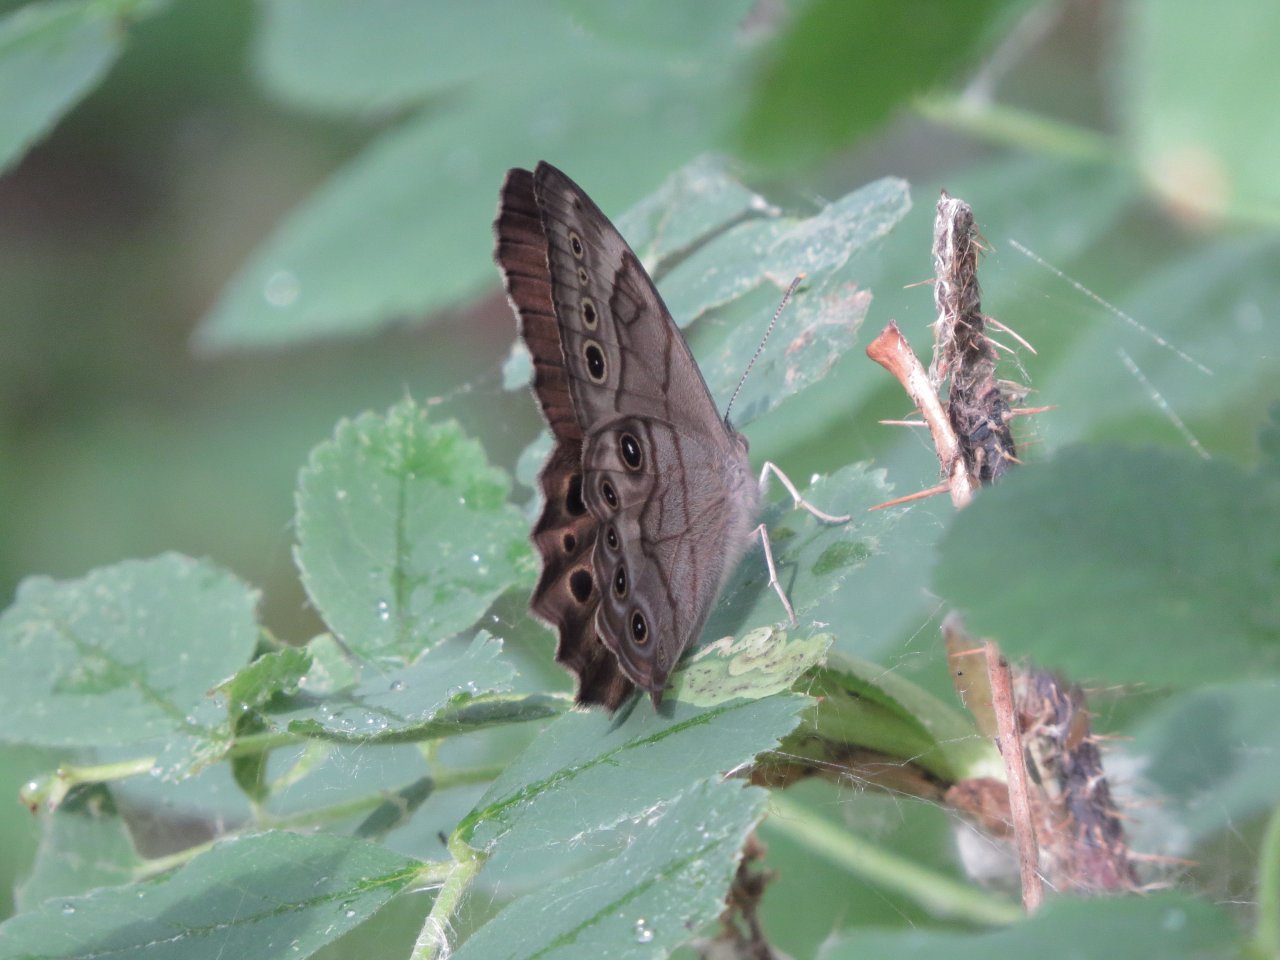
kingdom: Animalia
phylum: Arthropoda
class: Insecta
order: Lepidoptera
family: Nymphalidae
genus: Lethe
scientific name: Lethe anthedon
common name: Northern Pearly-Eye
